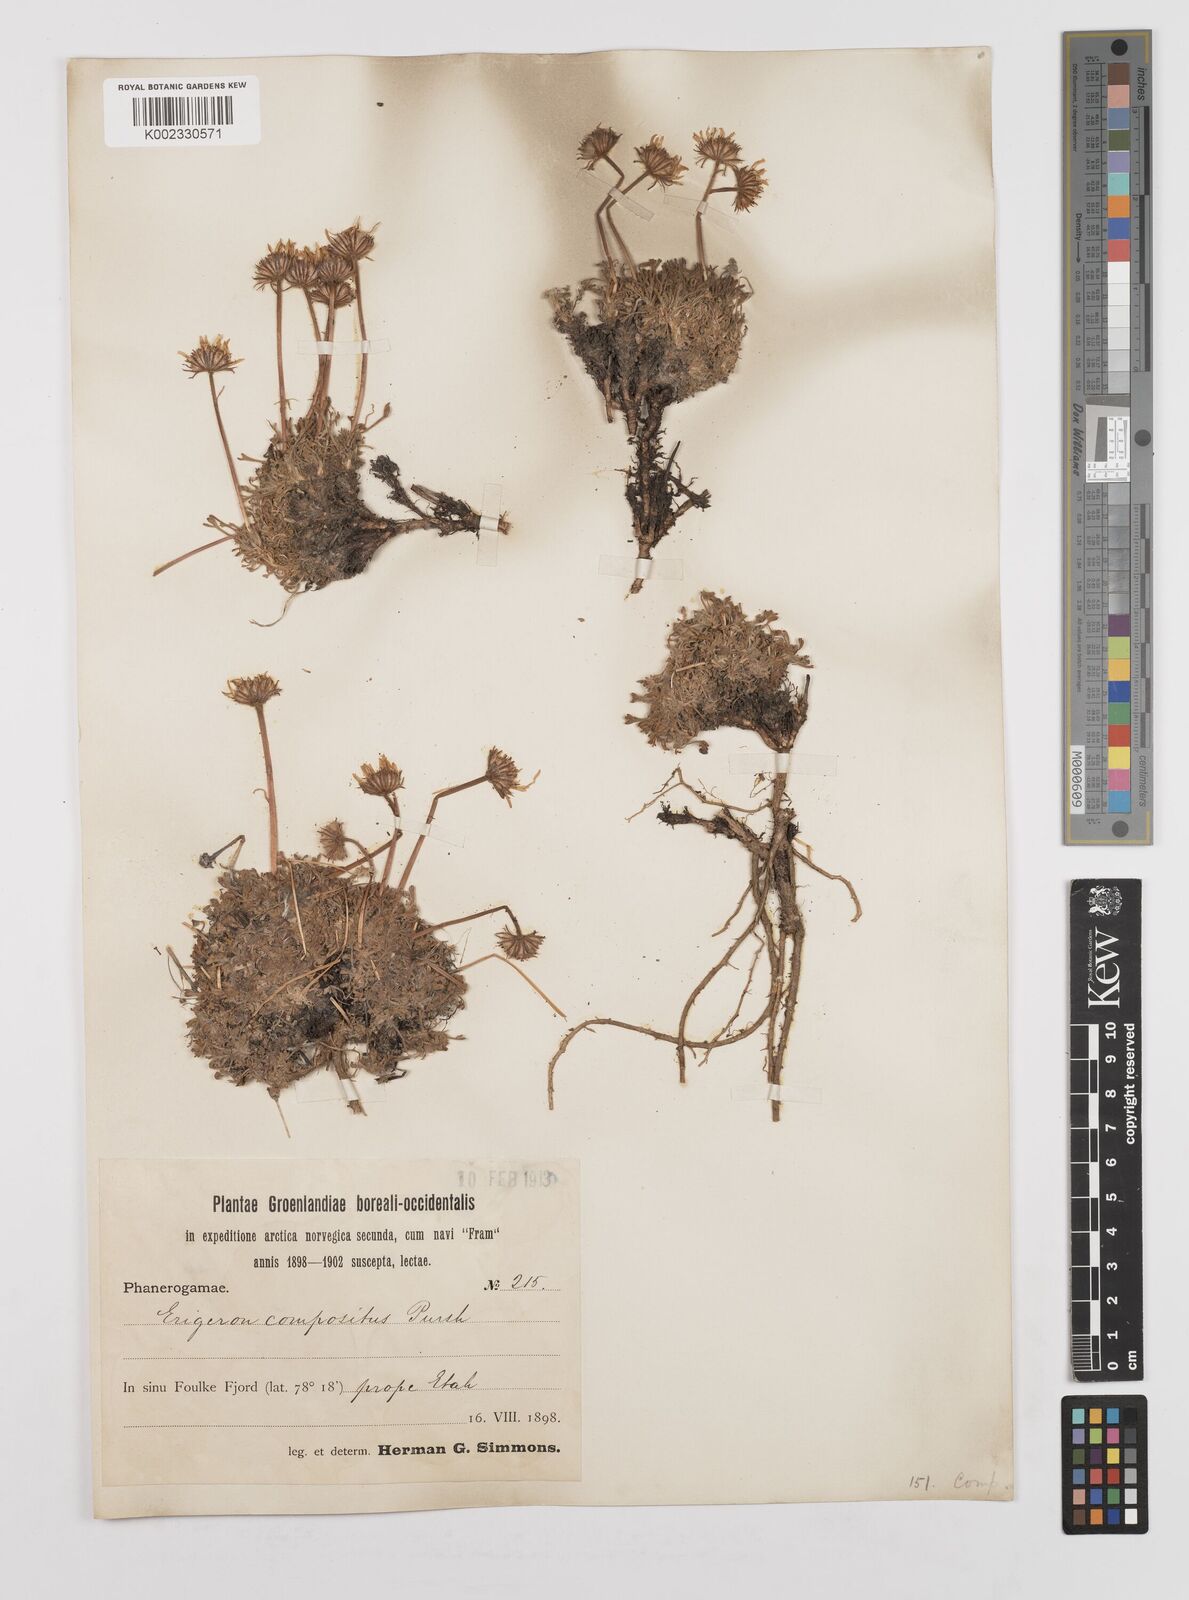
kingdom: Plantae
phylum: Tracheophyta
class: Magnoliopsida
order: Asterales
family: Asteraceae
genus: Erigeron
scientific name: Erigeron compositus
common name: Dwarf mountain fleabane
